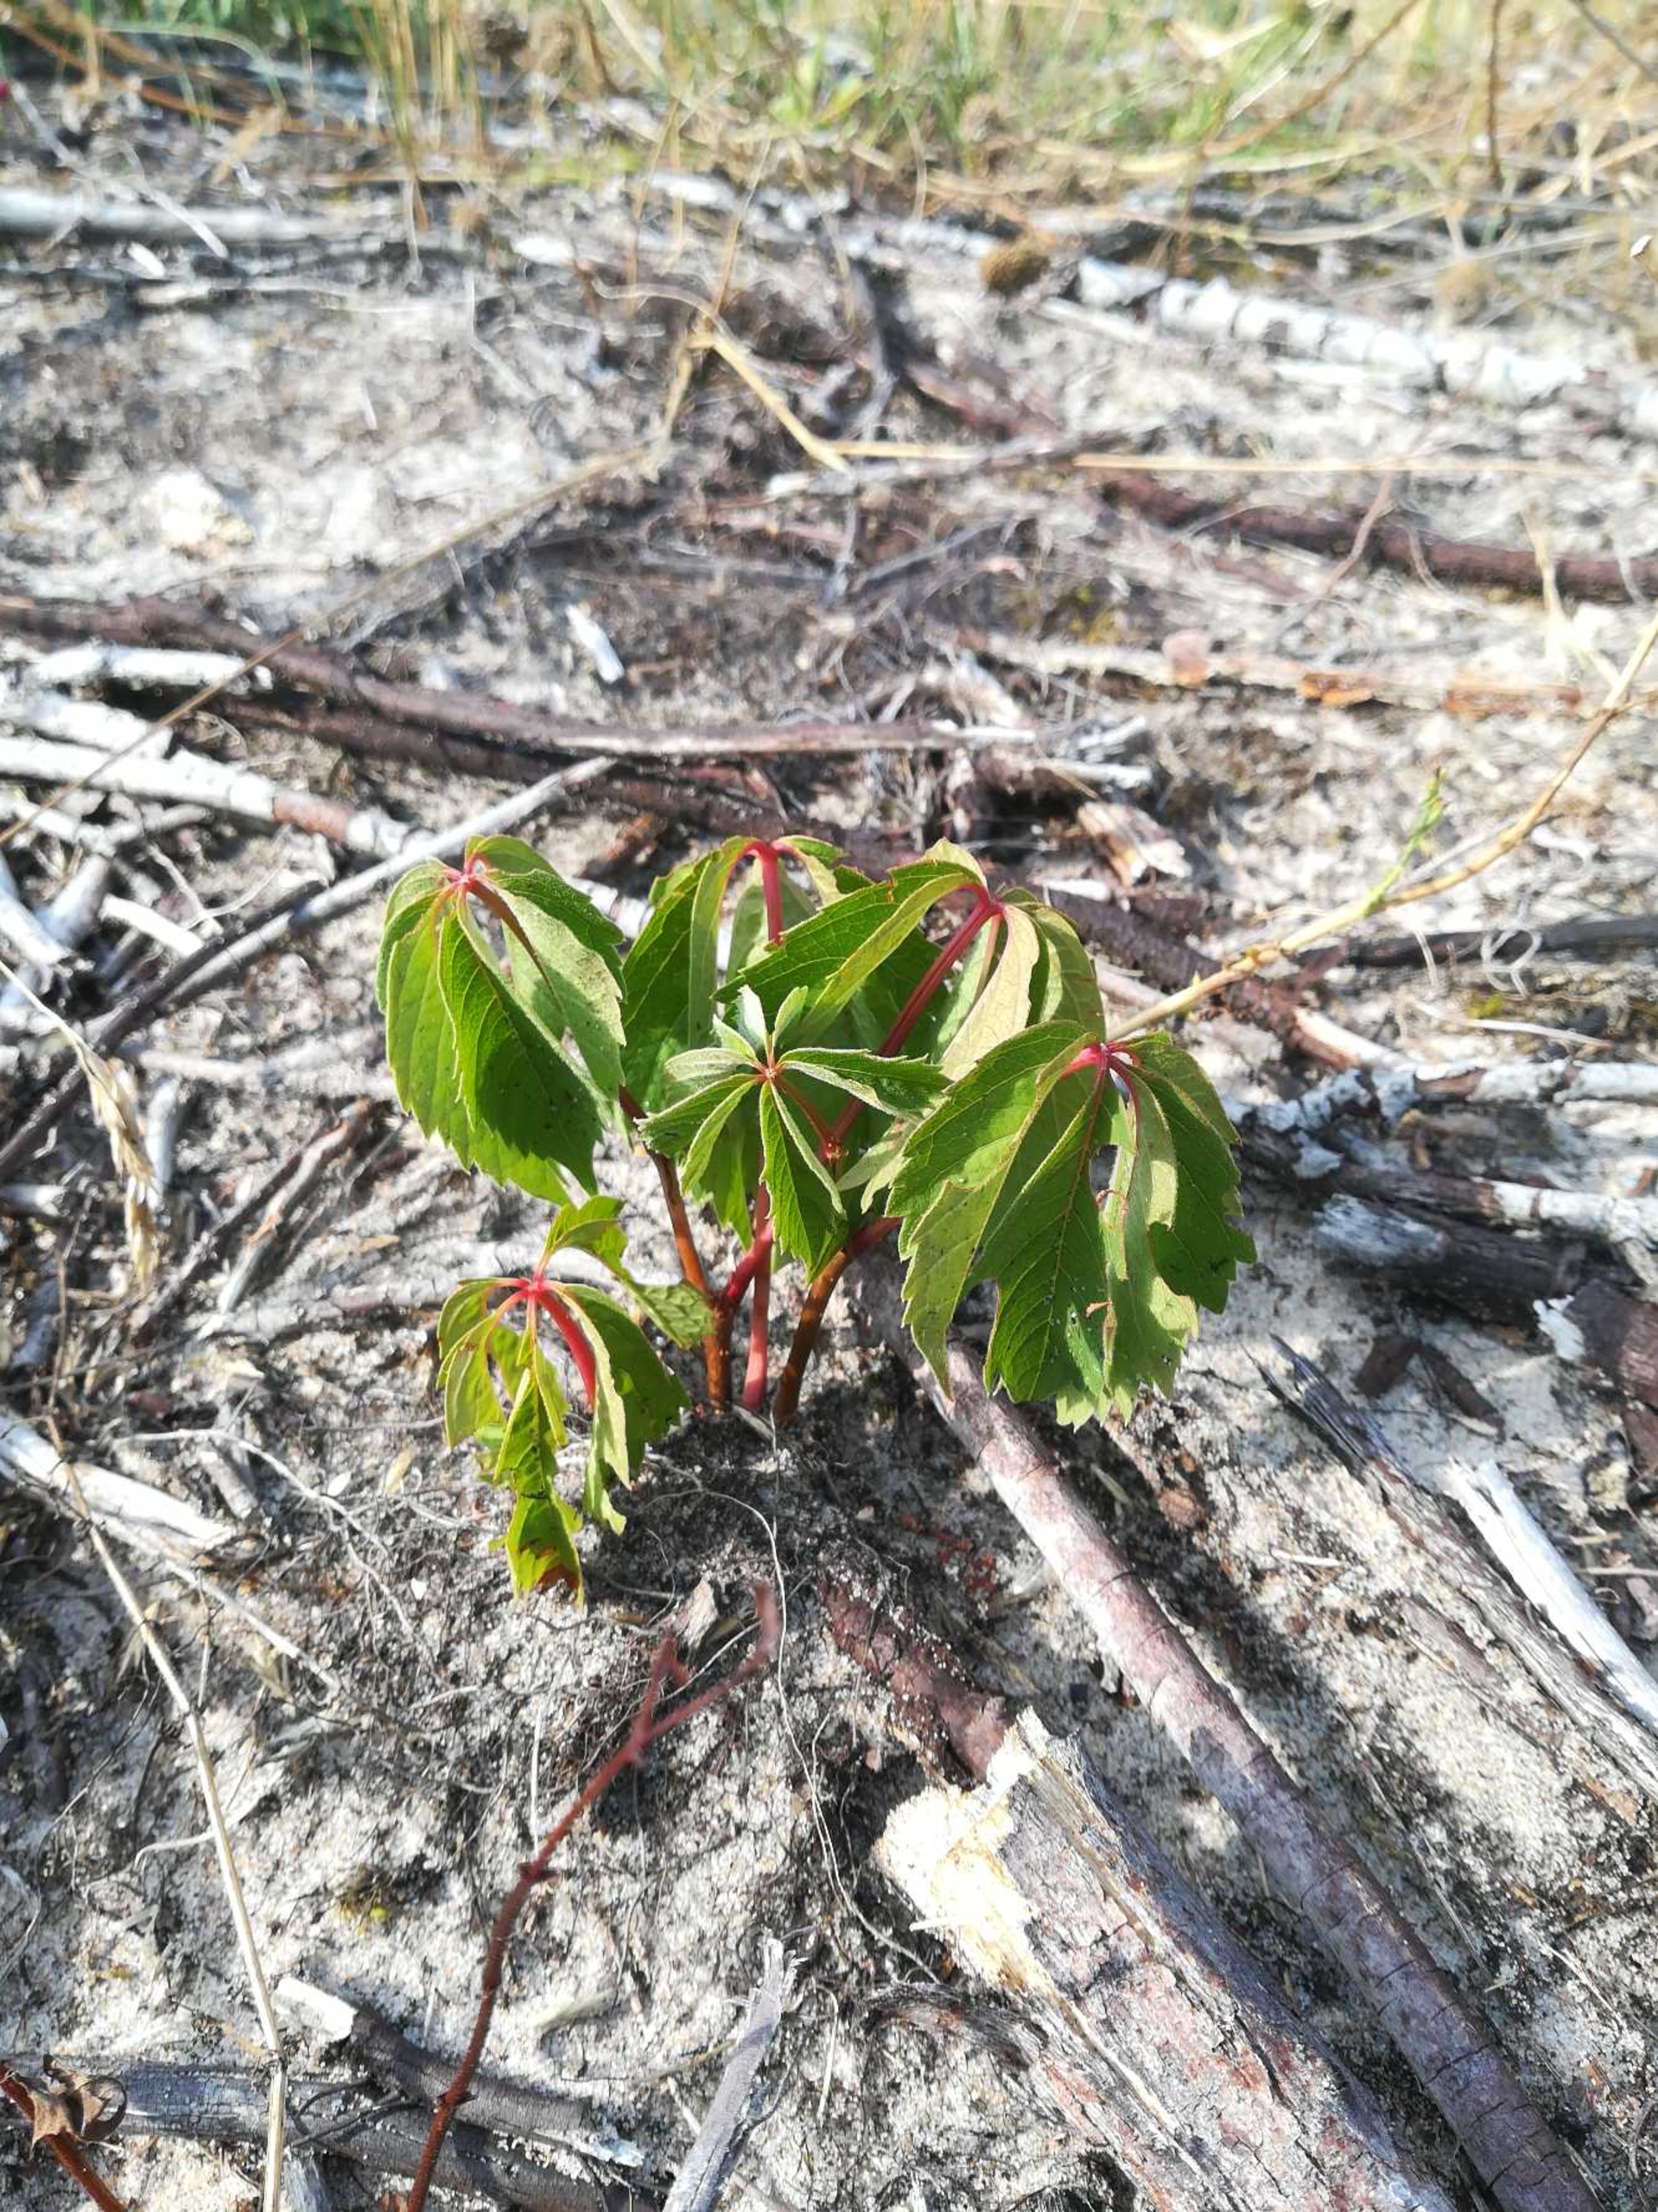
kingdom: Plantae
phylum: Tracheophyta
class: Magnoliopsida
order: Vitales
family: Vitaceae
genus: Parthenocissus
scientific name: Parthenocissus inserta
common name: Vildvin
